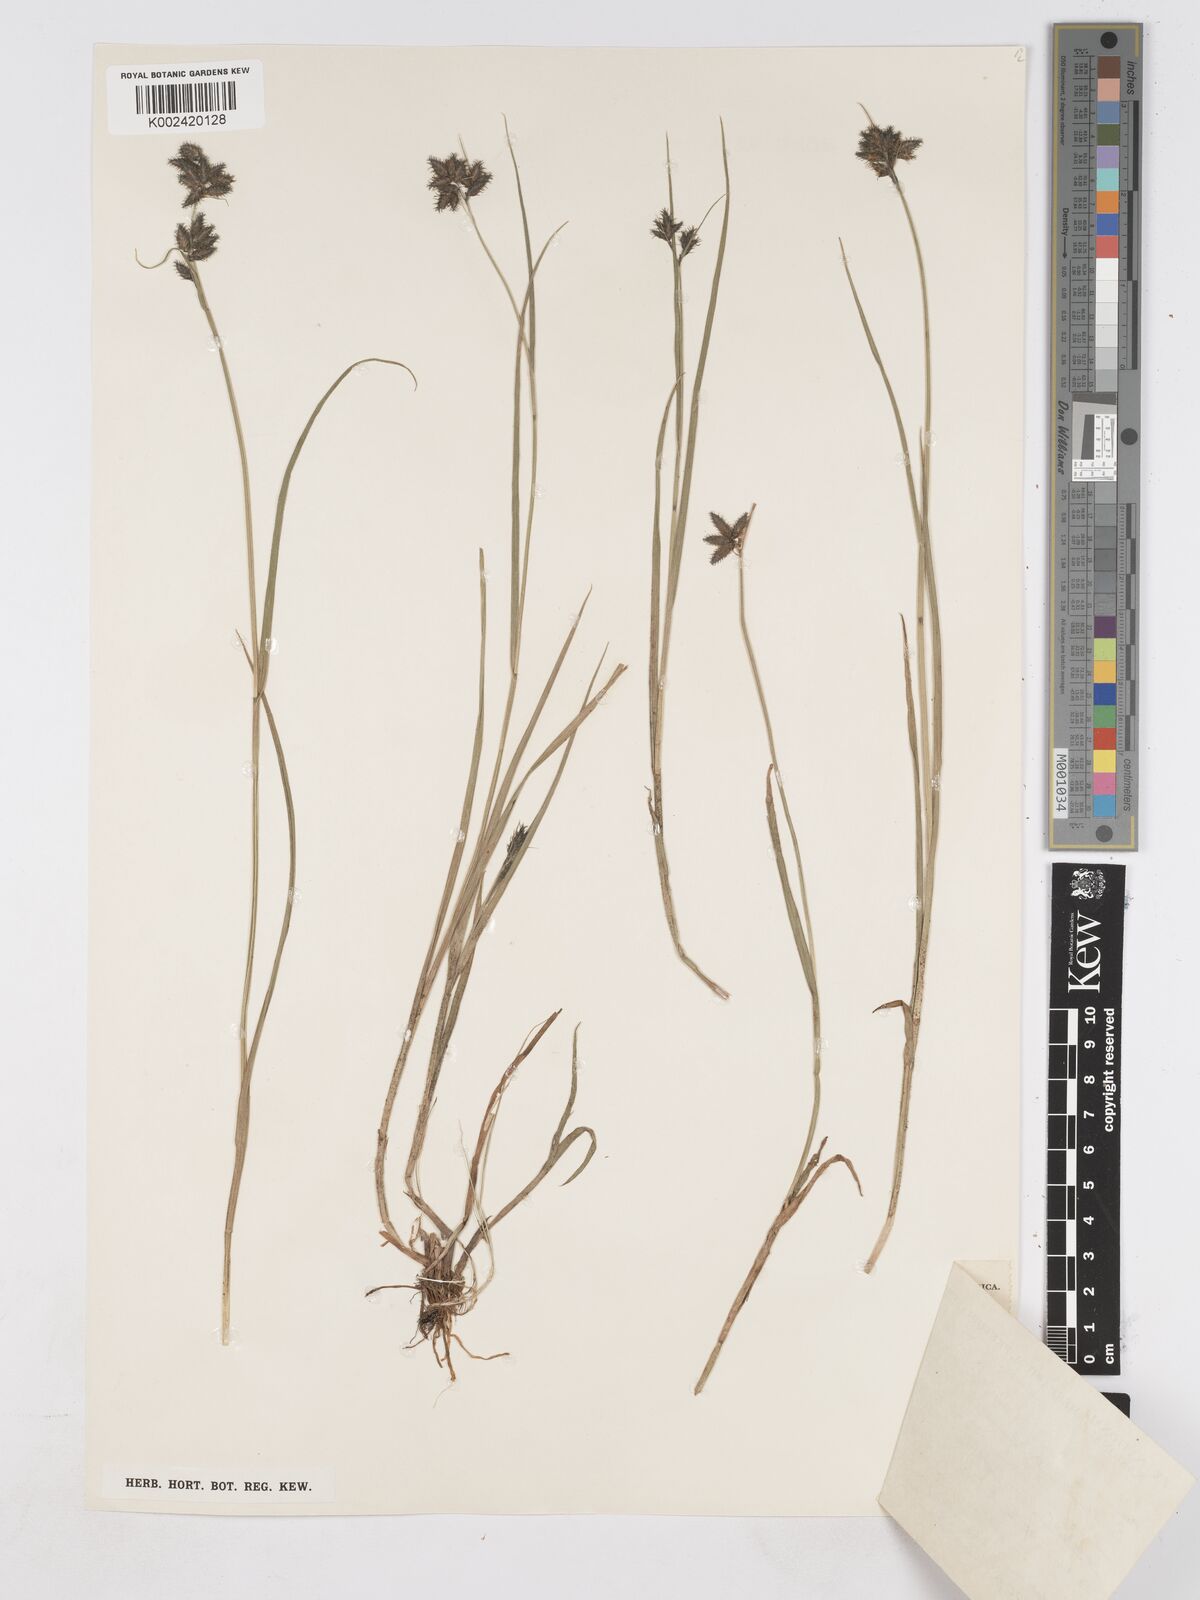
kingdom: Plantae
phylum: Tracheophyta
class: Liliopsida
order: Poales
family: Cyperaceae
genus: Fuirena
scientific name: Fuirena pubescens
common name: Hairy sedge
